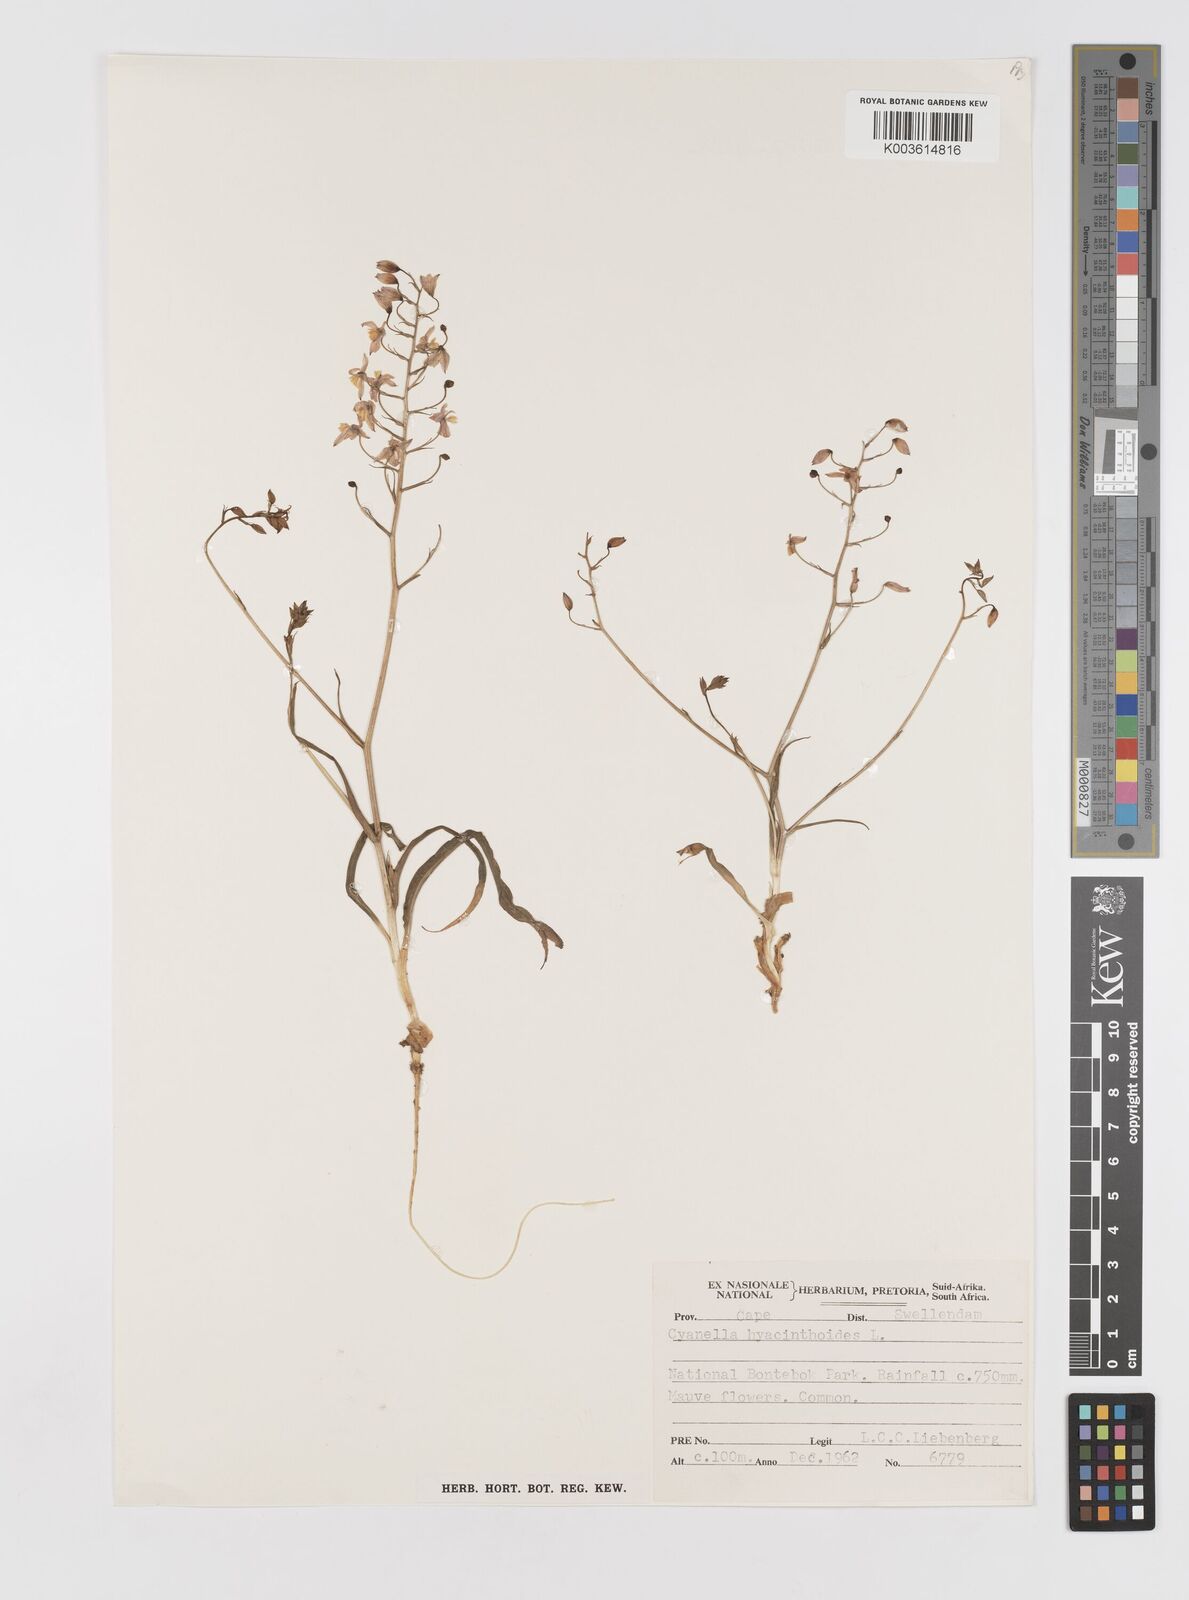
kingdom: Plantae
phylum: Tracheophyta
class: Liliopsida
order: Asparagales
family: Tecophilaeaceae
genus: Cyanella
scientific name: Cyanella hyacinthoides
